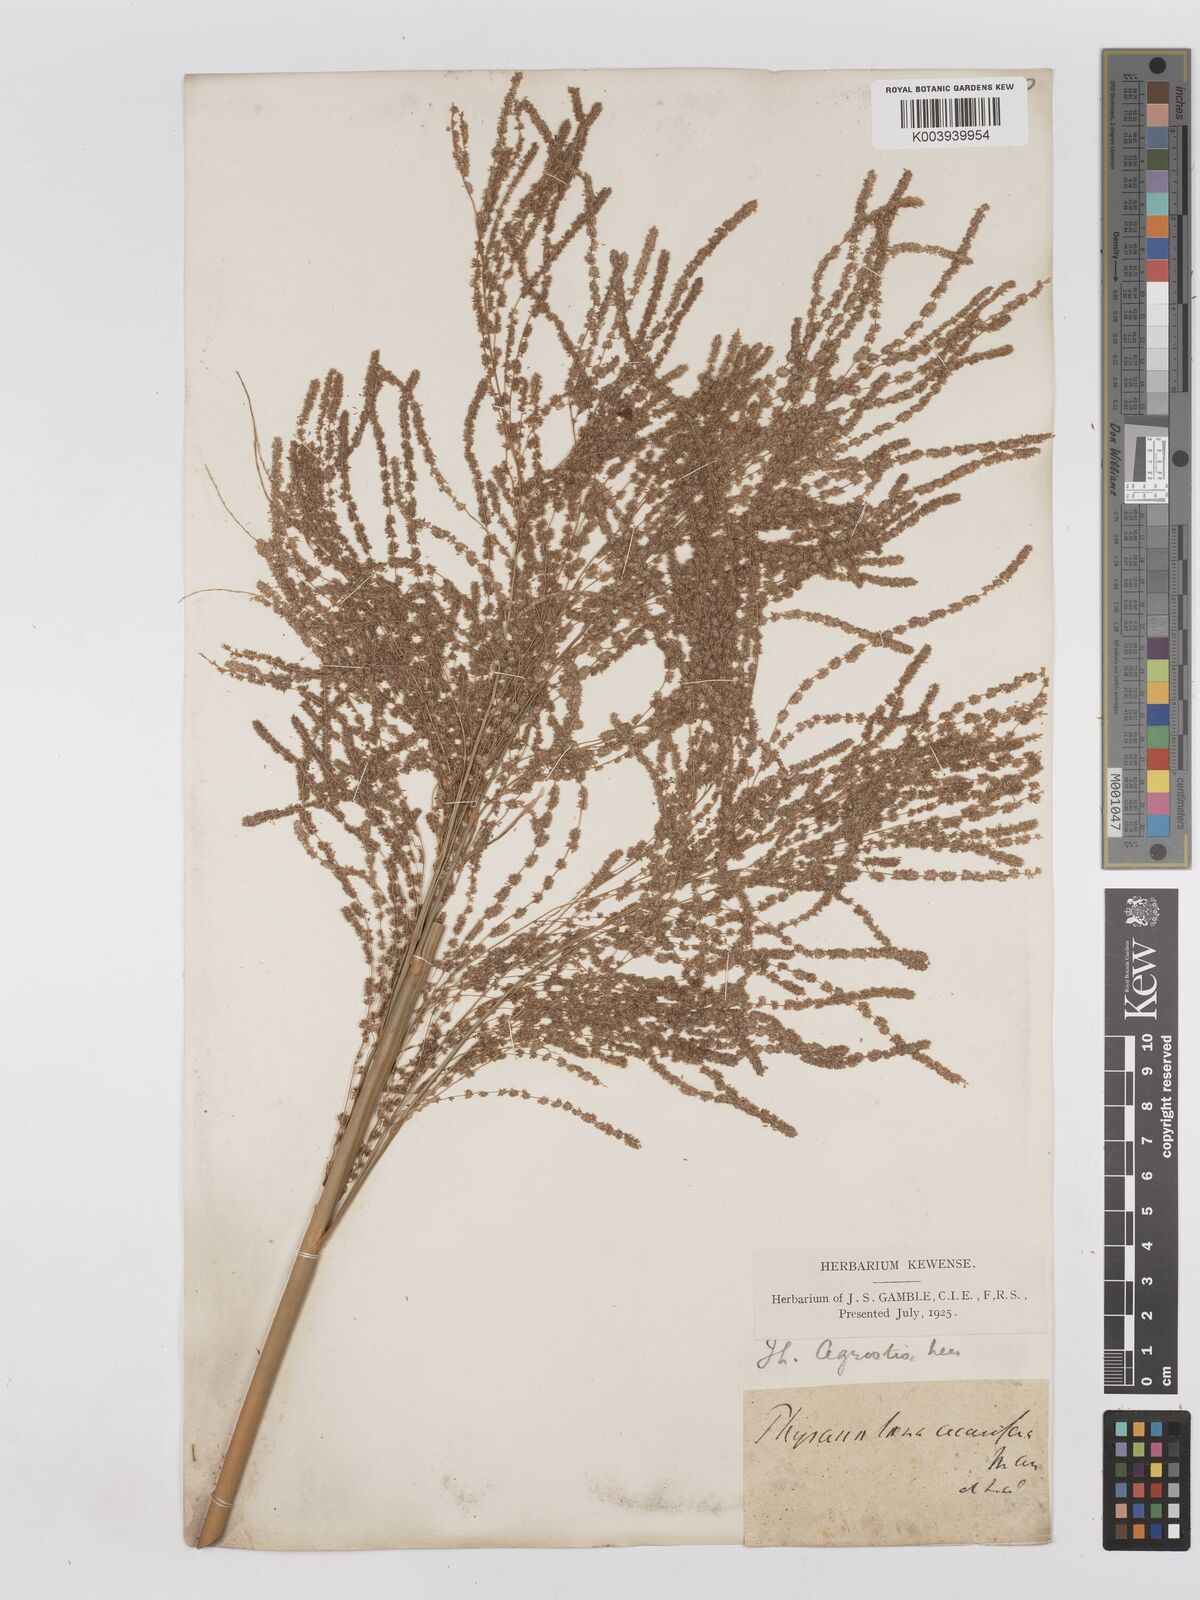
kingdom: Plantae
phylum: Tracheophyta
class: Liliopsida
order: Poales
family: Poaceae
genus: Thysanolaena
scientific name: Thysanolaena latifolia
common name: Tiger grass
